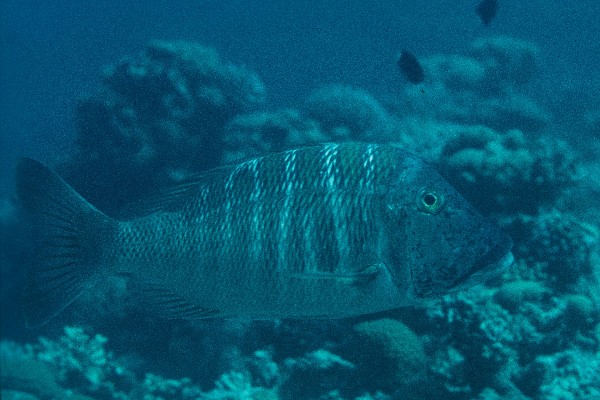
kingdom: Animalia
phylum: Chordata
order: Perciformes
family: Lethrinidae
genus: Lethrinus
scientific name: Lethrinus mahsena
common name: Sky emperor
